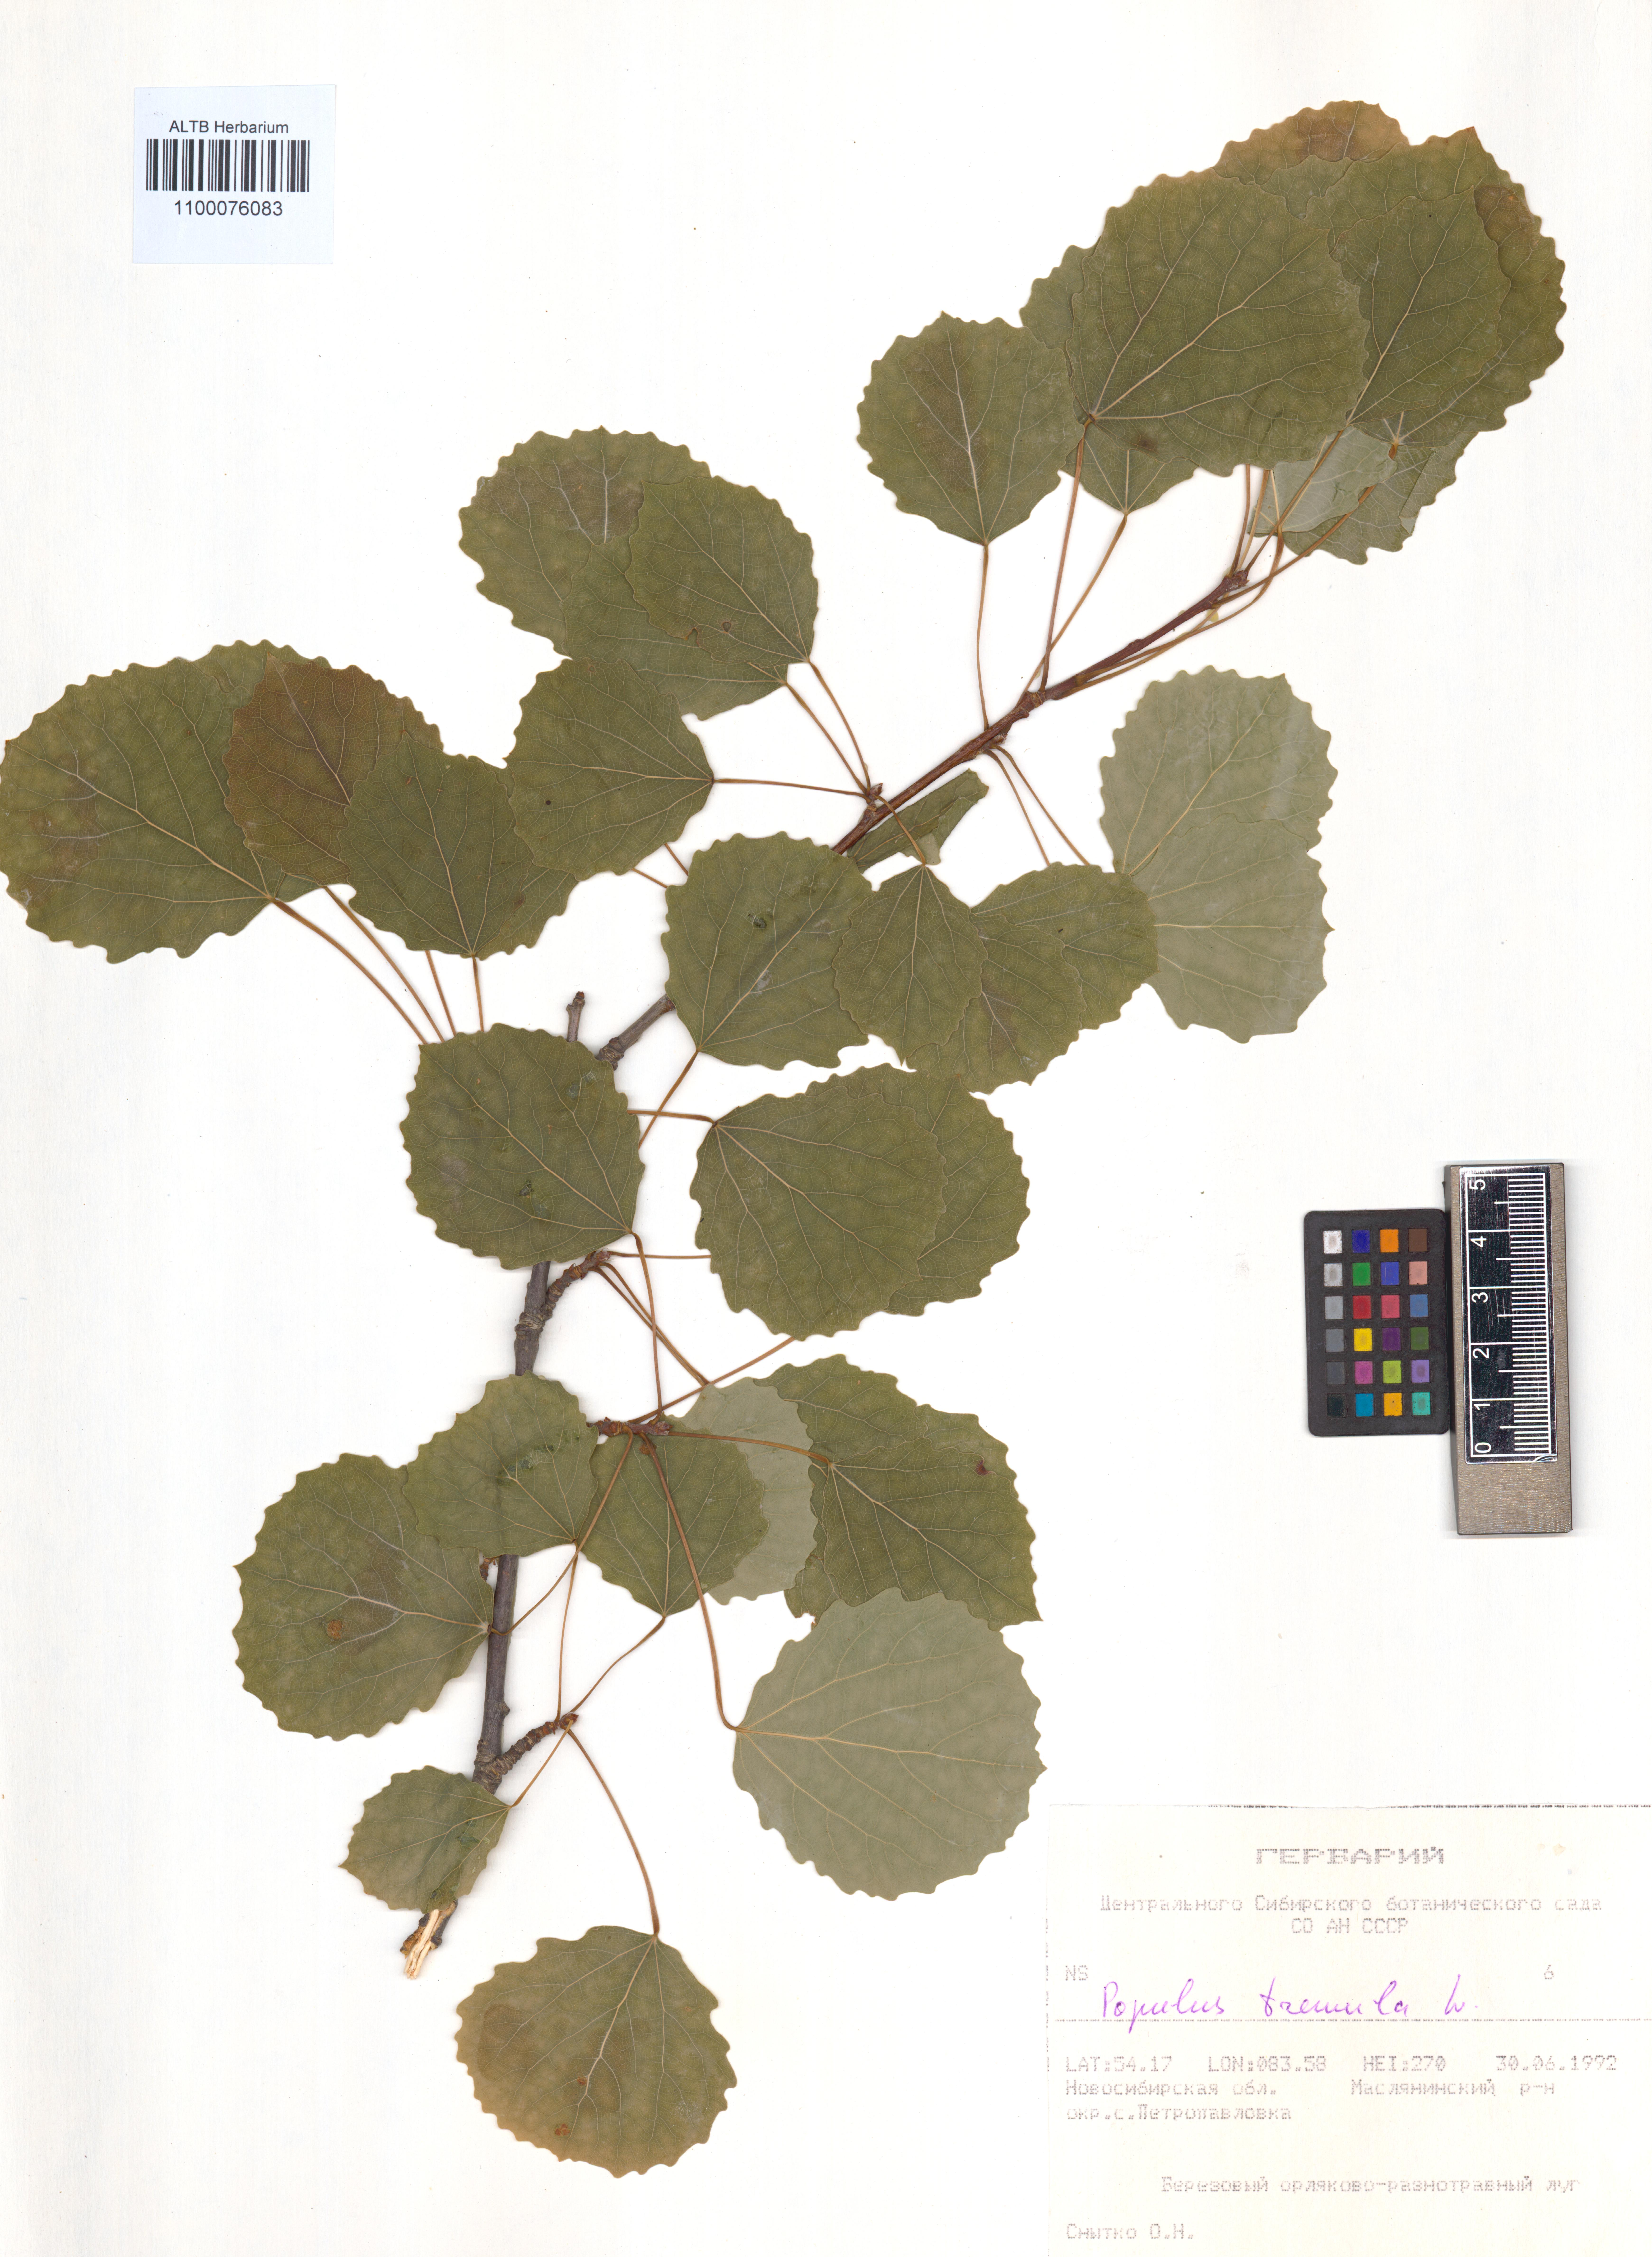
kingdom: Plantae
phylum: Tracheophyta
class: Magnoliopsida
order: Malpighiales
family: Salicaceae
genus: Populus
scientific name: Populus tremula
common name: European aspen
